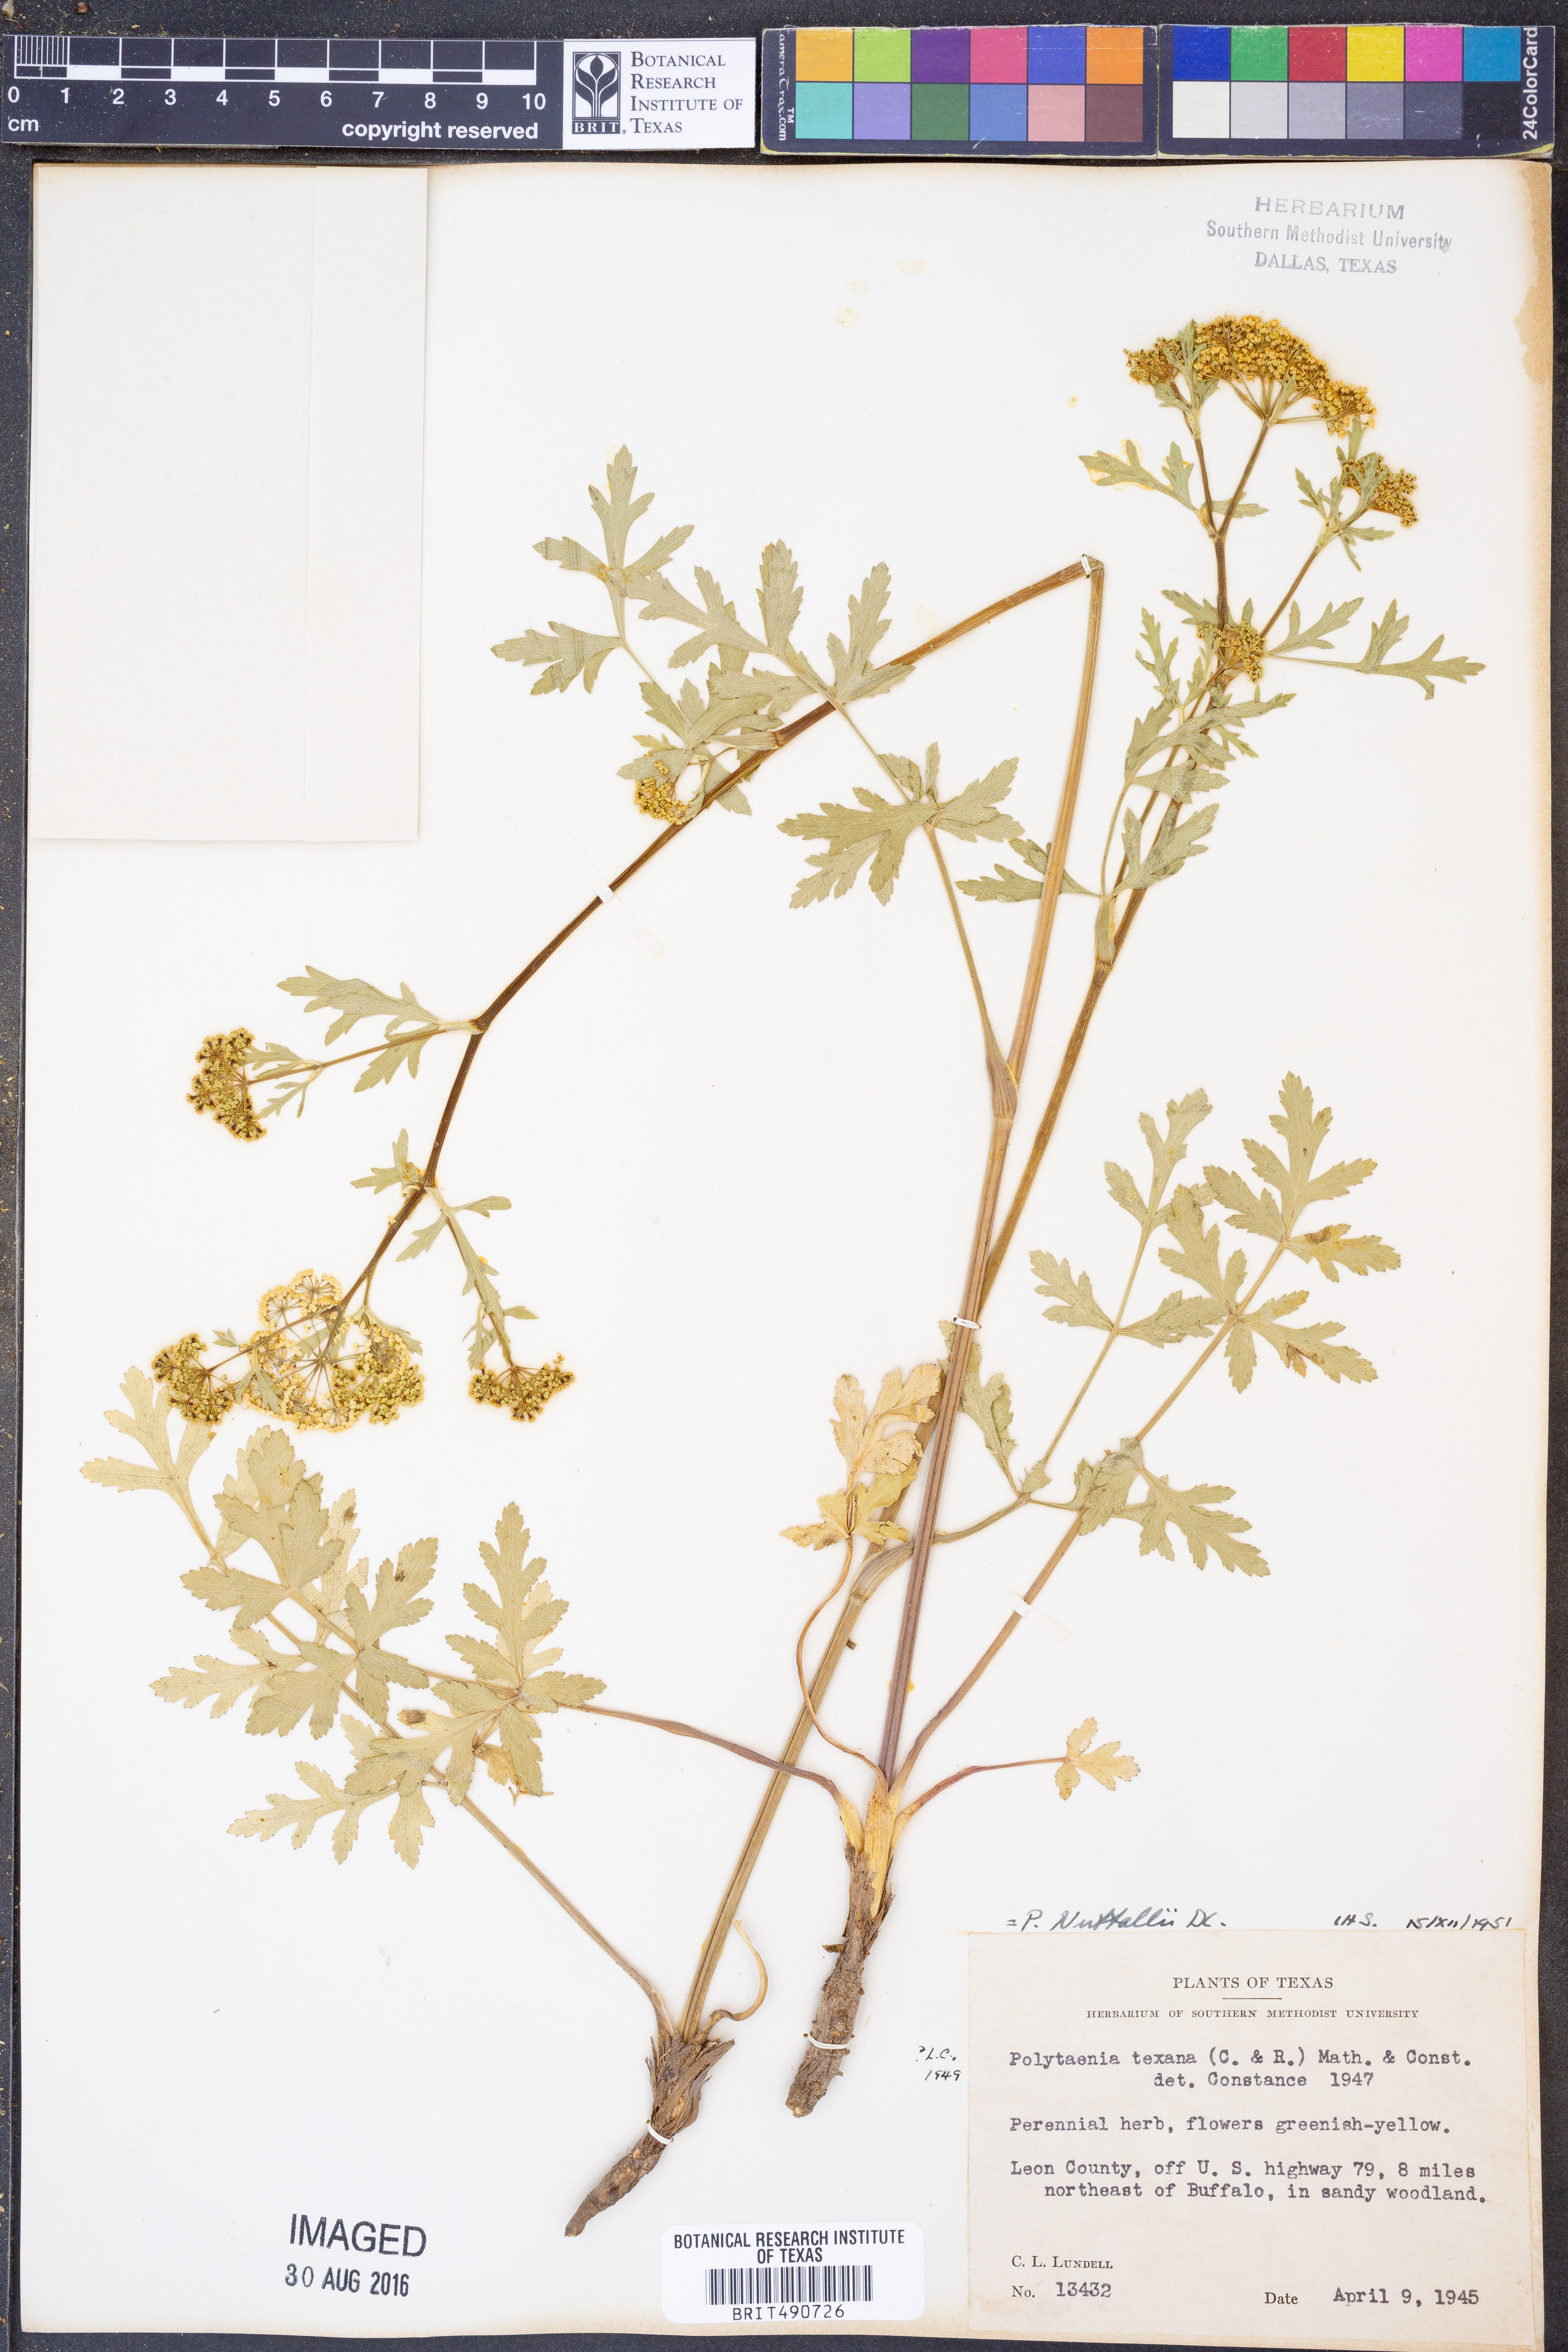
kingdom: Plantae
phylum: Tracheophyta
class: Magnoliopsida
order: Apiales
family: Apiaceae
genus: Polytaenia
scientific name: Polytaenia nuttallii
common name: Prairie-parsley
